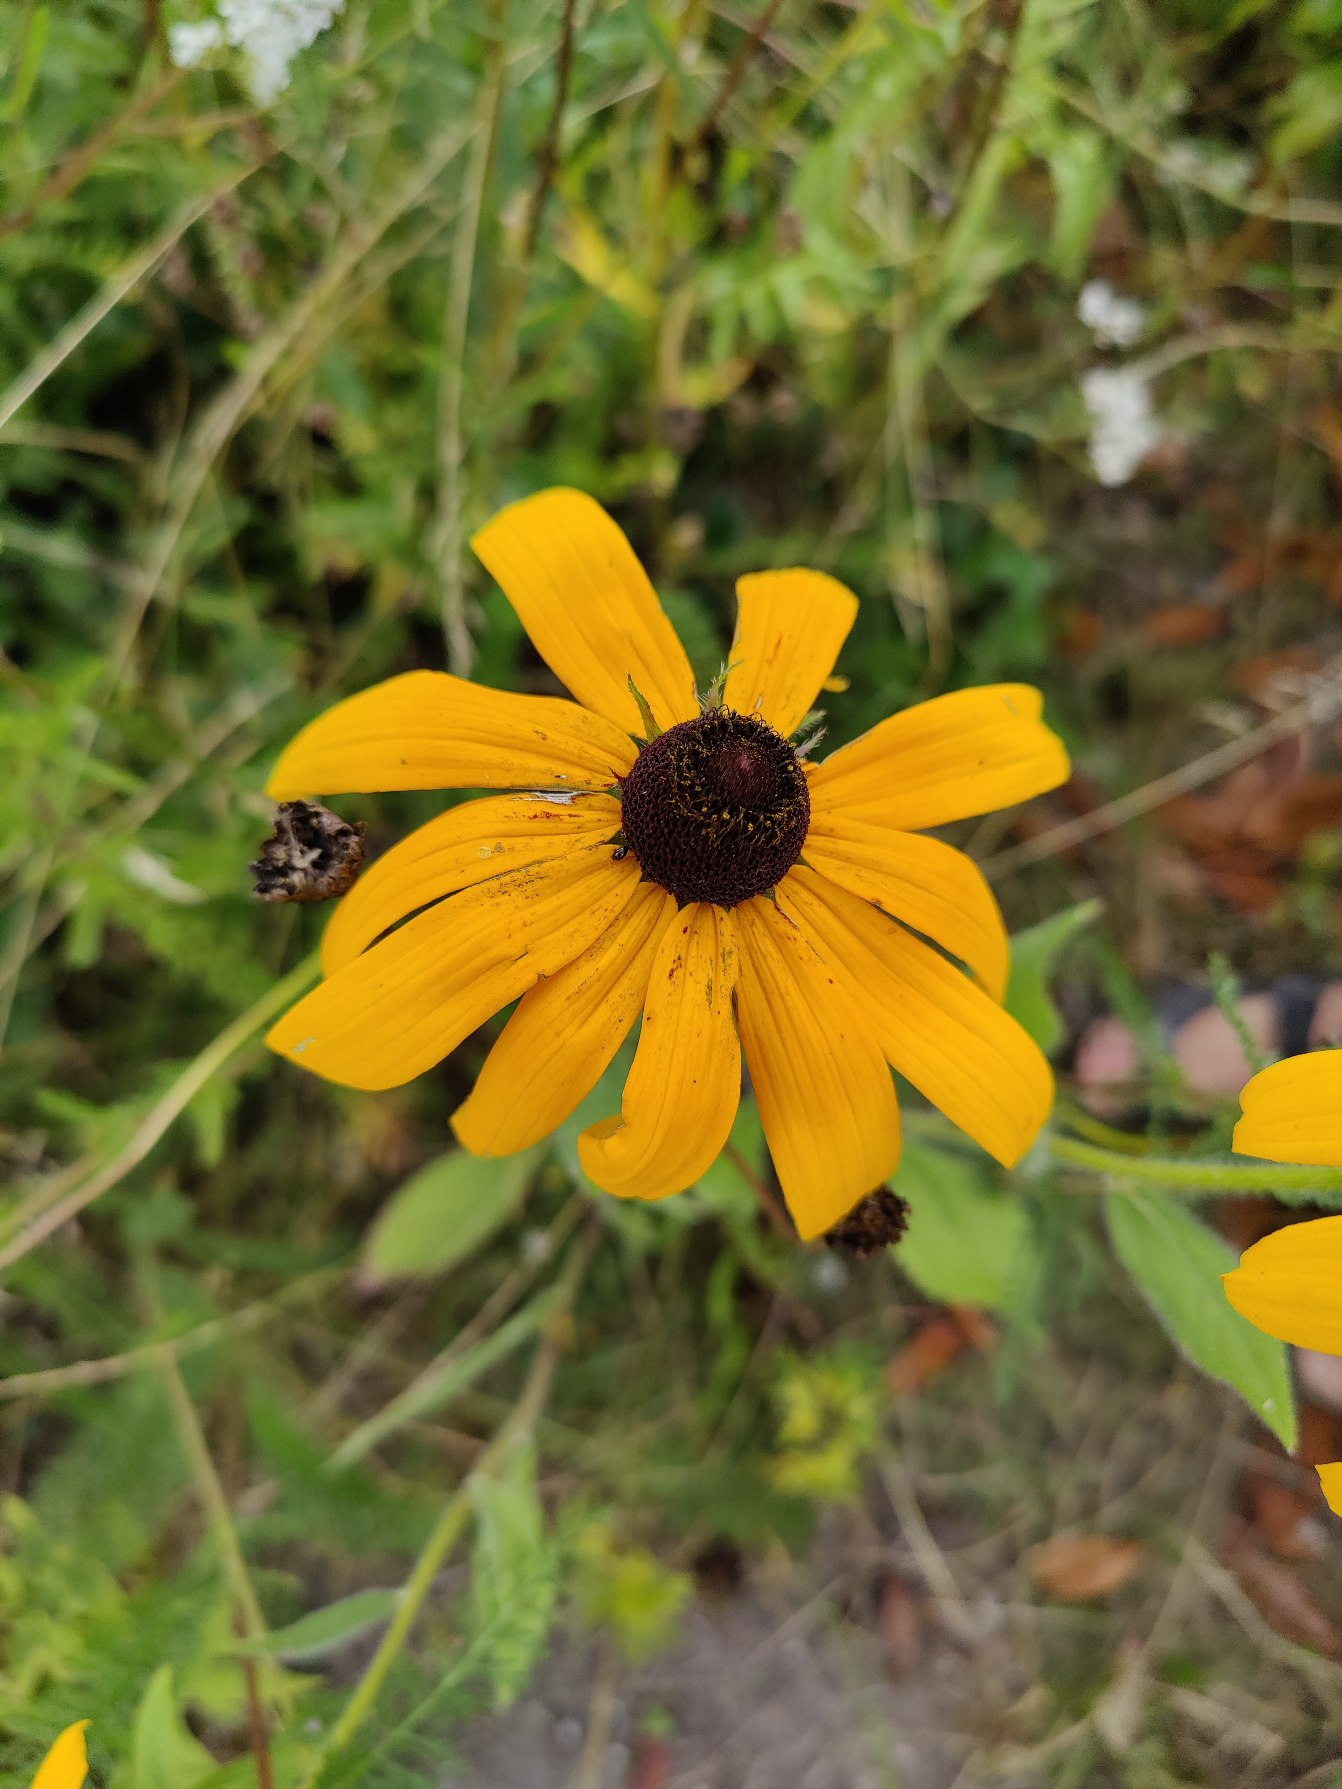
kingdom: Plantae
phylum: Tracheophyta
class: Magnoliopsida
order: Asterales
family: Asteraceae
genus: Rudbeckia
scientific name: Rudbeckia
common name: Solhatslægten
